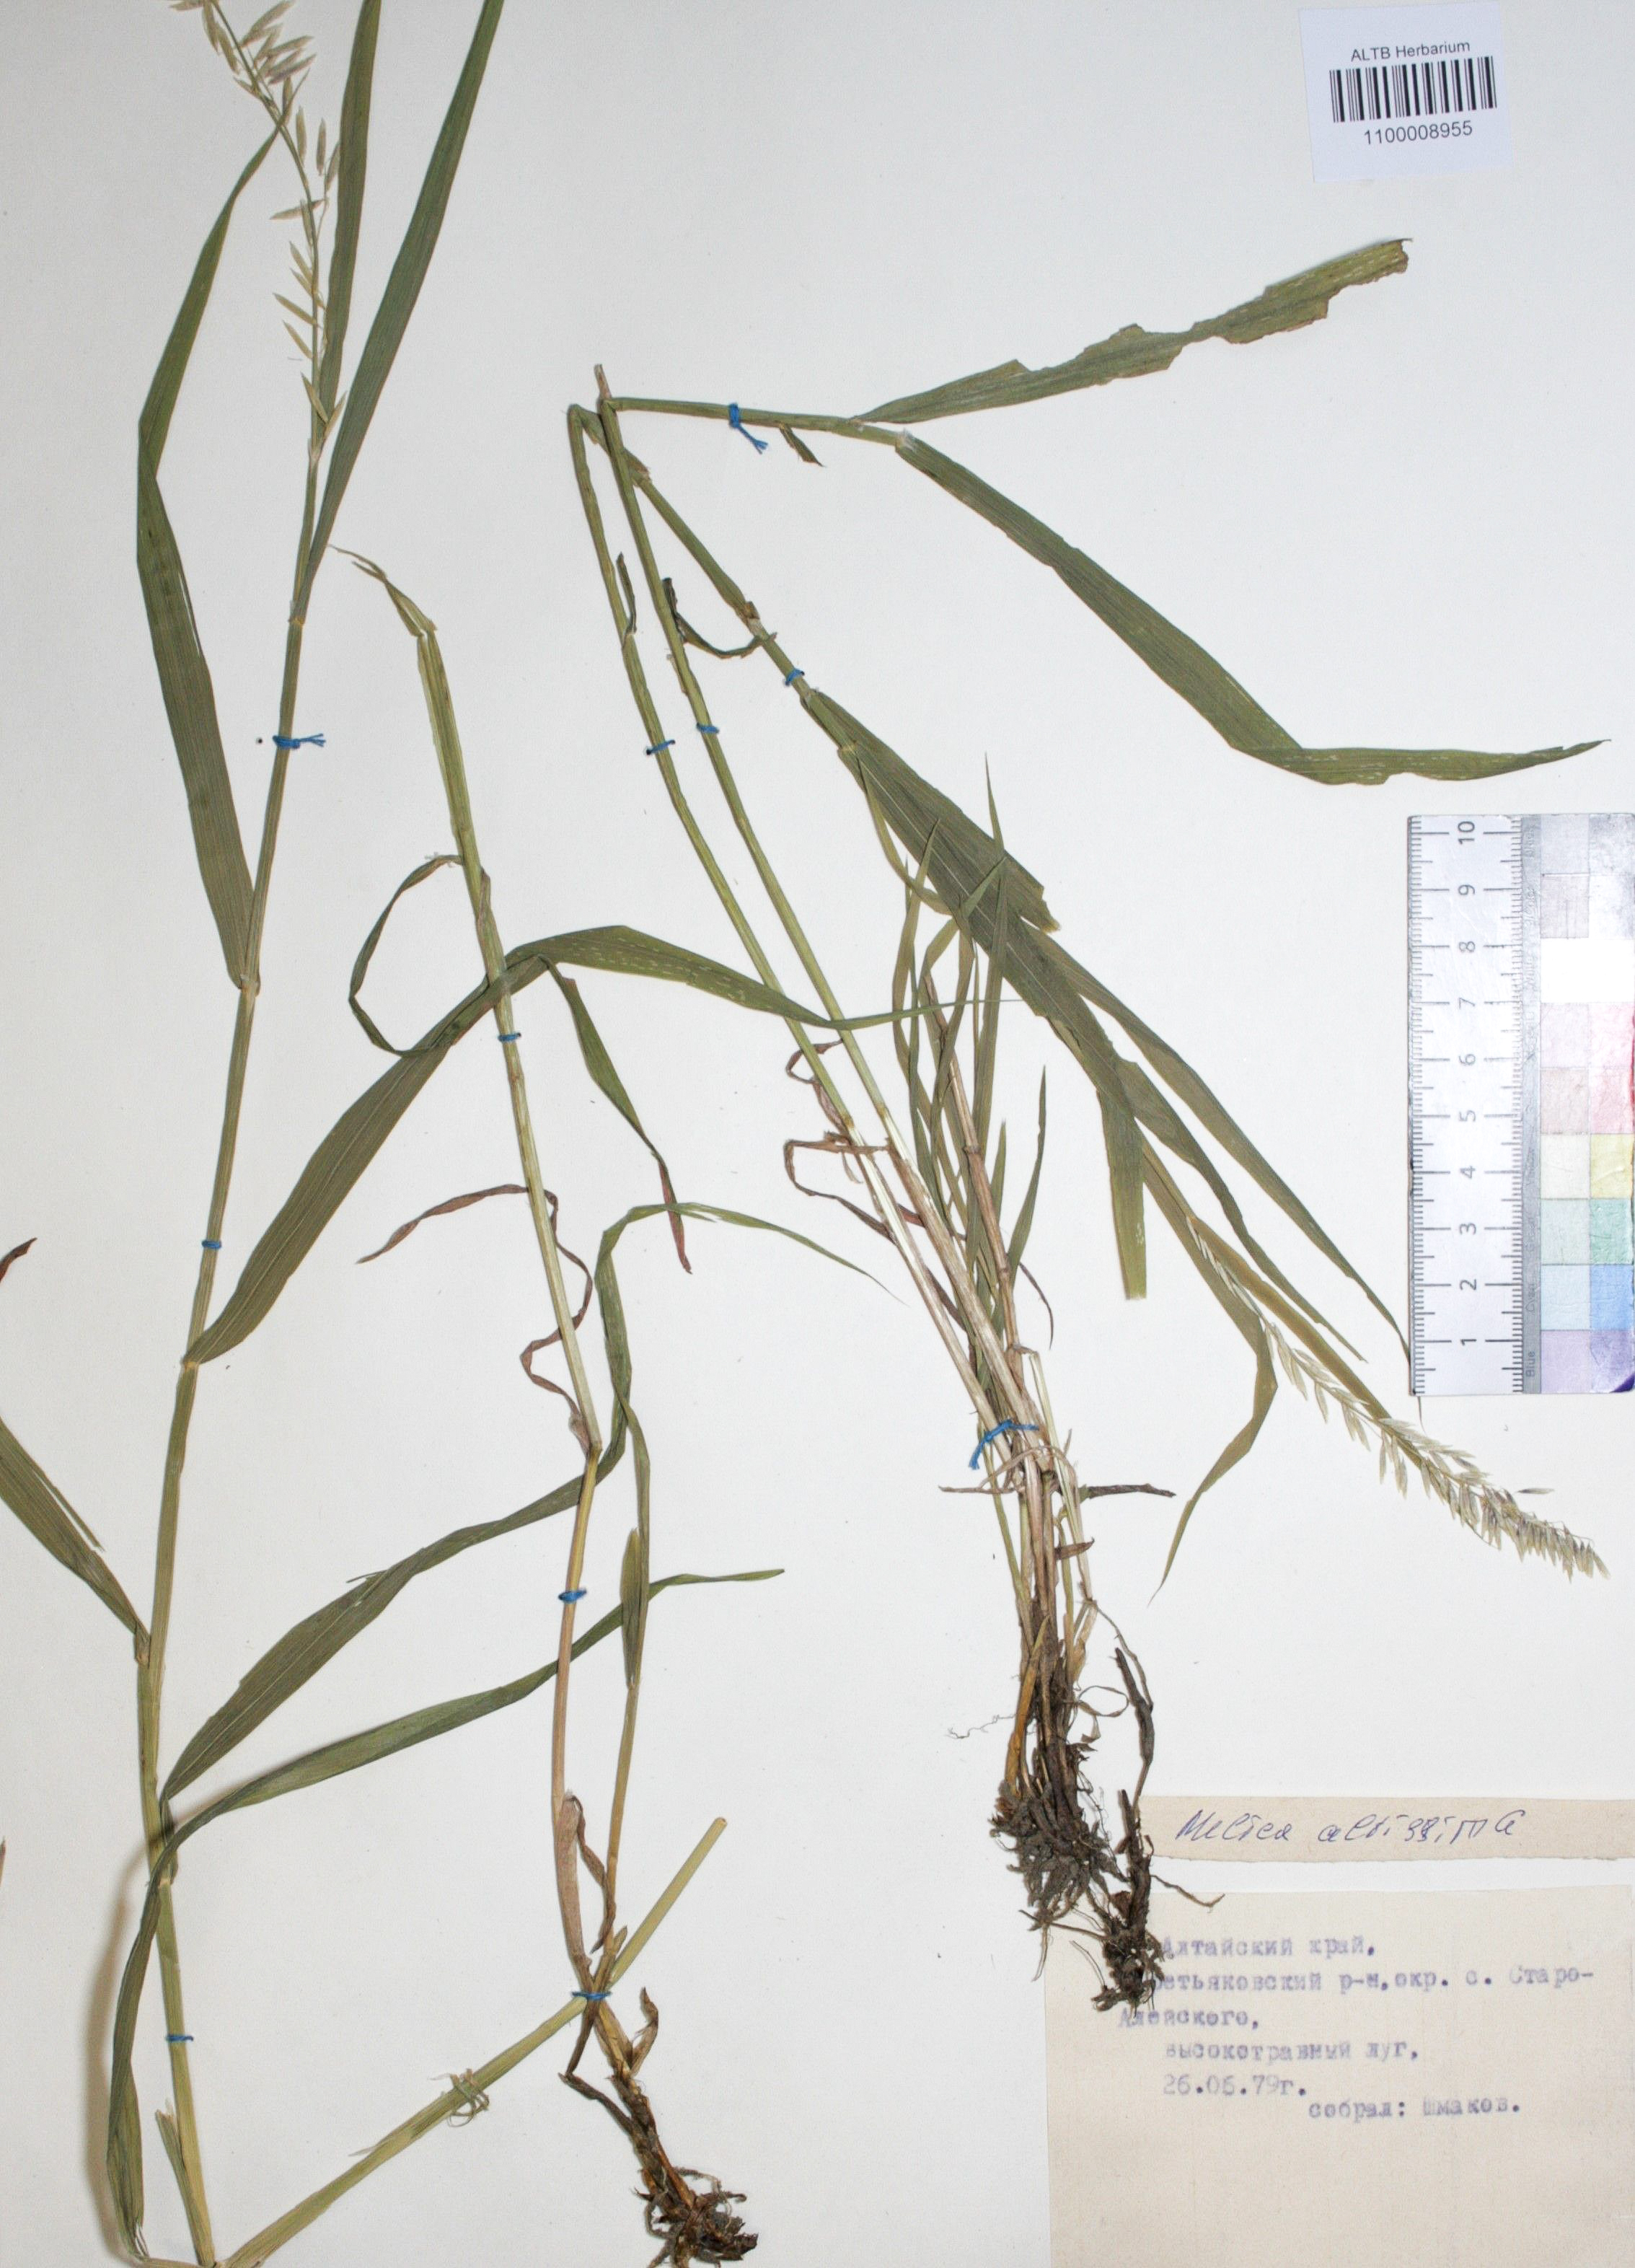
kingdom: Plantae
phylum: Tracheophyta
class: Liliopsida
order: Poales
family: Poaceae
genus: Melica
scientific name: Melica altissima
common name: Siberian melicgrass
